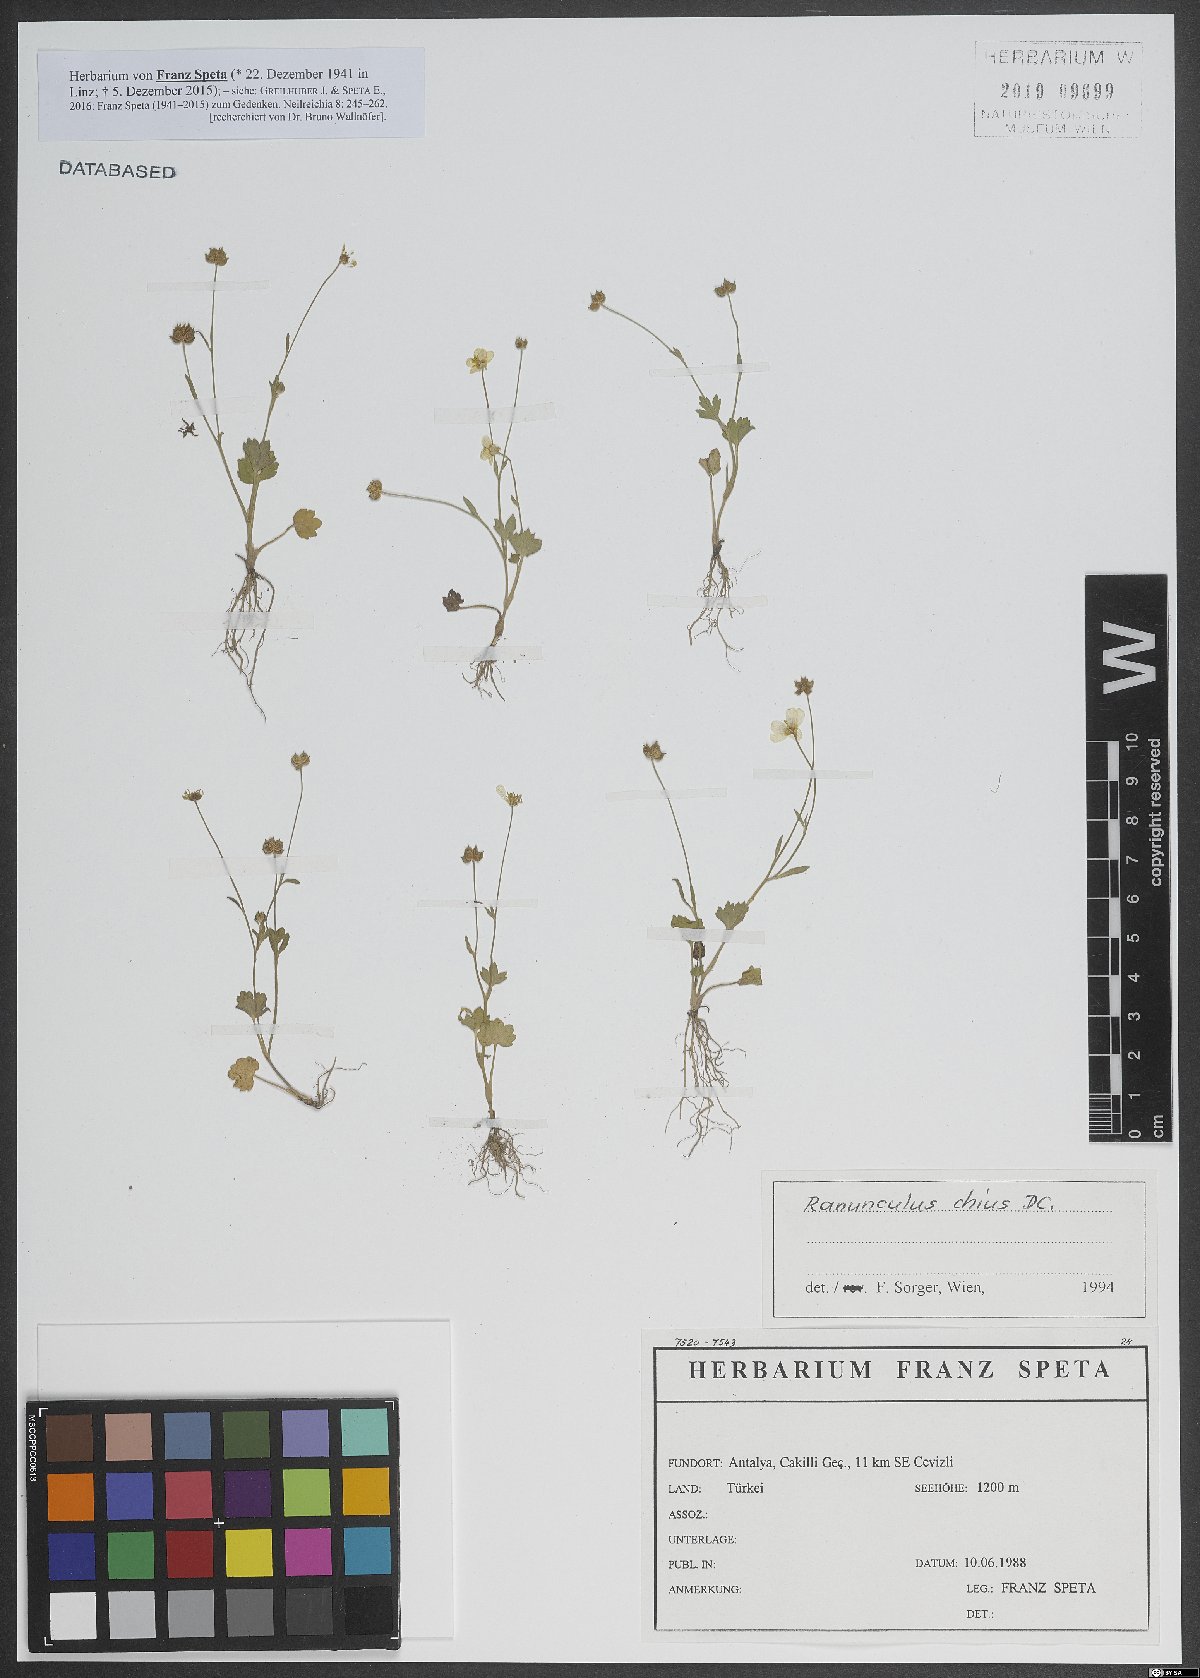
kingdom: Plantae
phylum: Tracheophyta
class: Magnoliopsida
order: Ranunculales
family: Ranunculaceae
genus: Ranunculus
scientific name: Ranunculus chius
